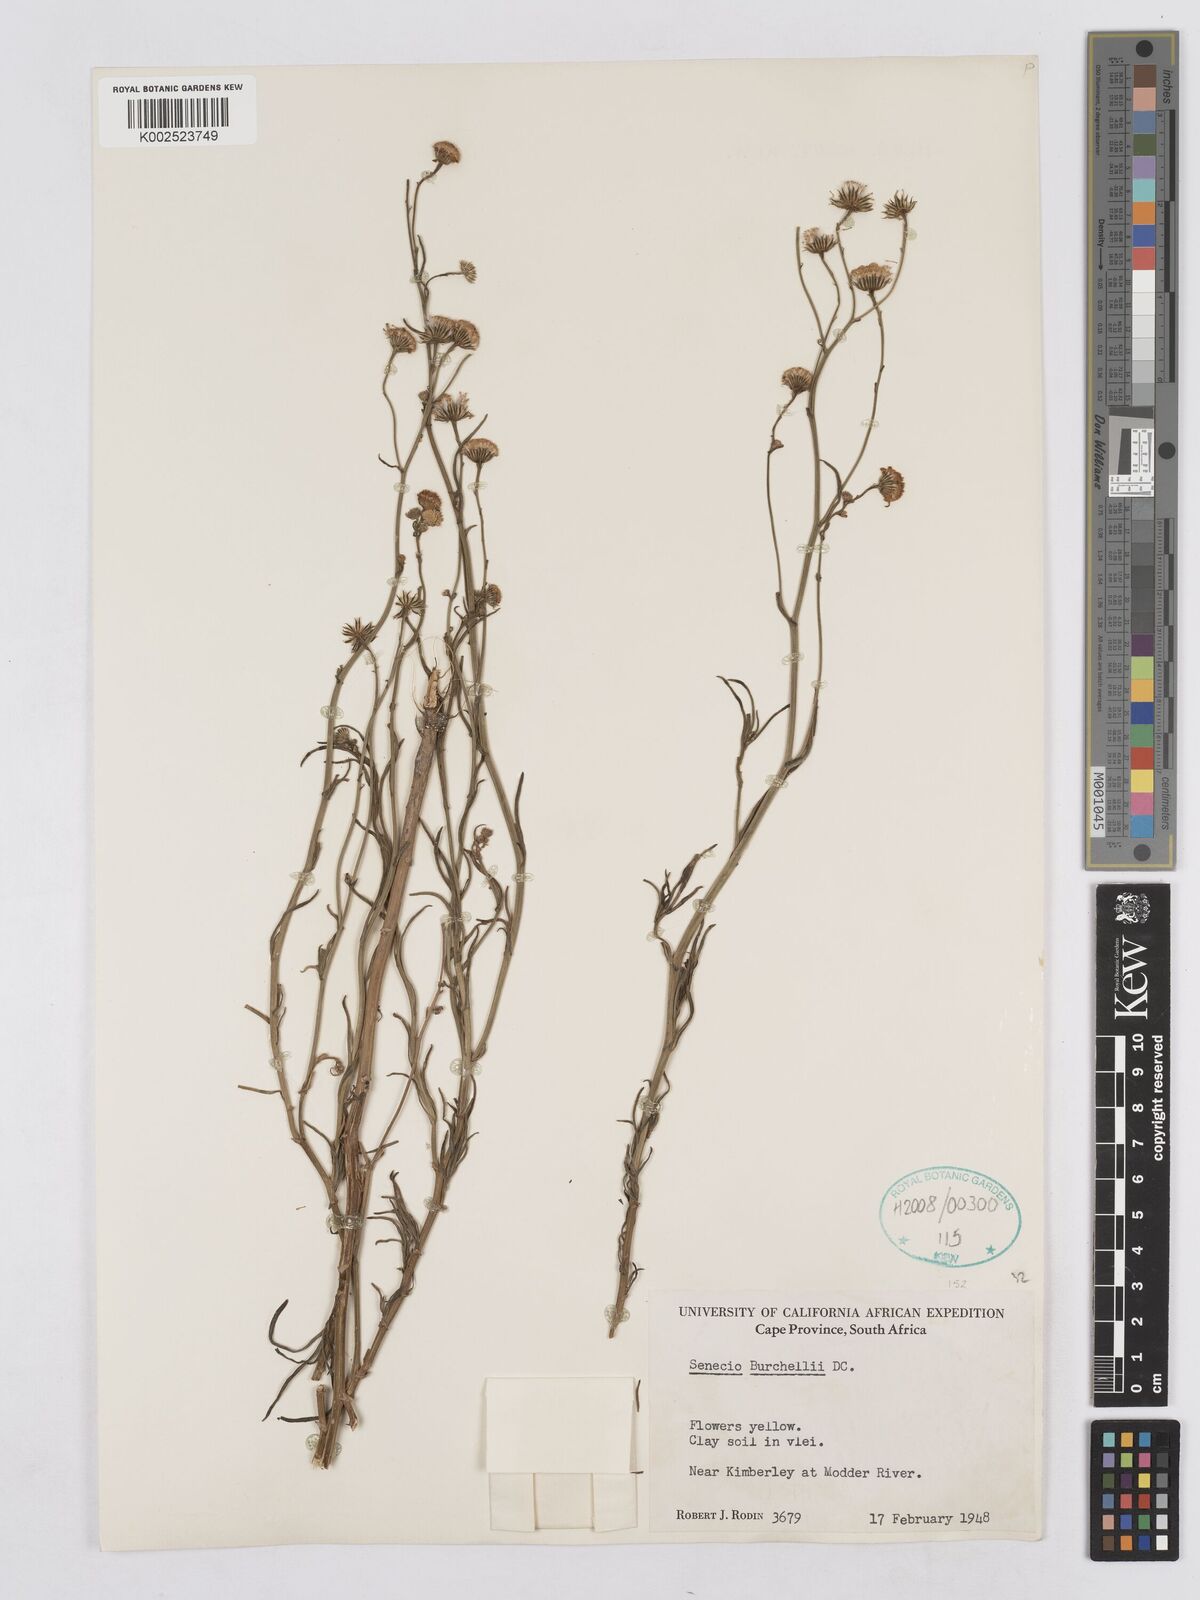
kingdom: Plantae
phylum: Tracheophyta
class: Magnoliopsida
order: Asterales
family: Asteraceae
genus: Senecio
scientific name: Senecio burchellii
